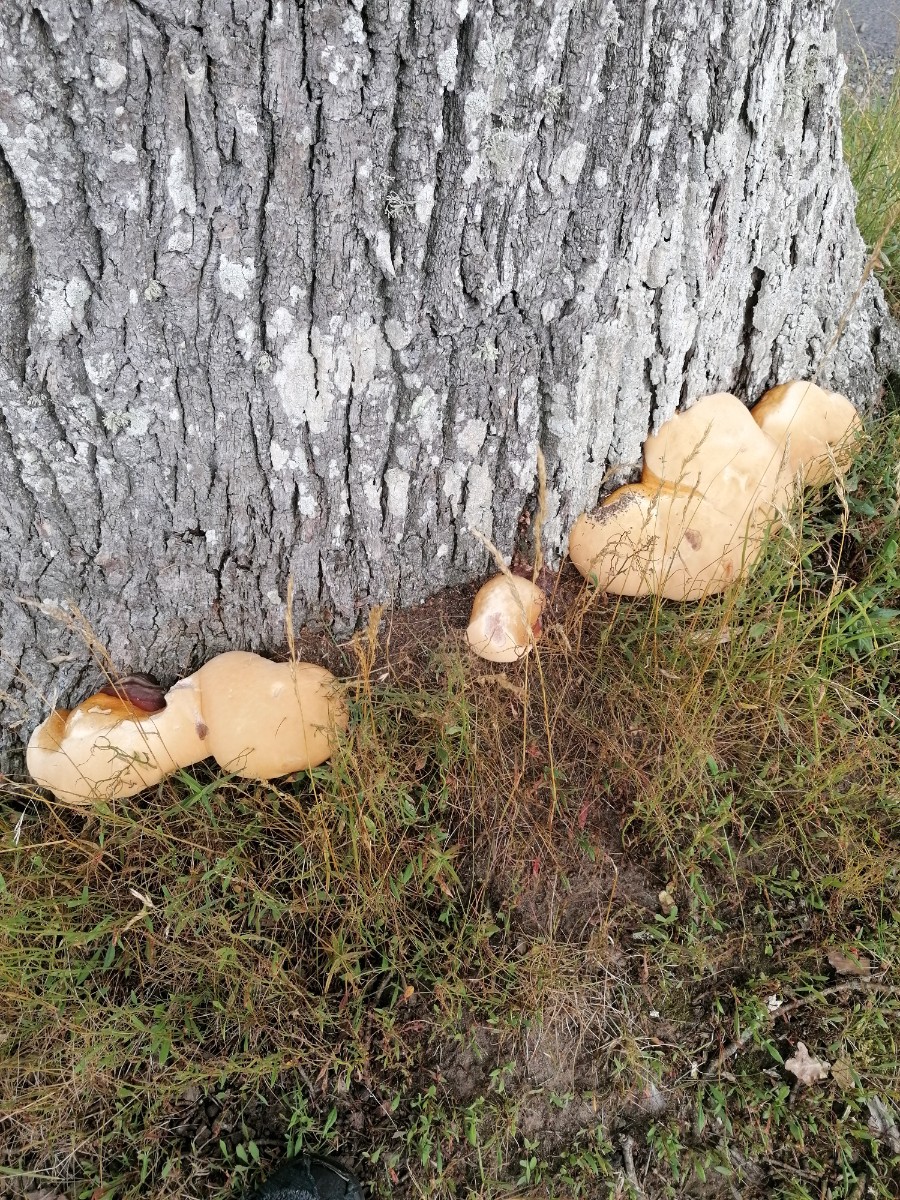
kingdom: Fungi
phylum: Basidiomycota
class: Agaricomycetes
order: Polyporales
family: Polyporaceae
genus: Ganoderma
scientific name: Ganoderma resinaceum
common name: gyldenbrun lakporesvamp
